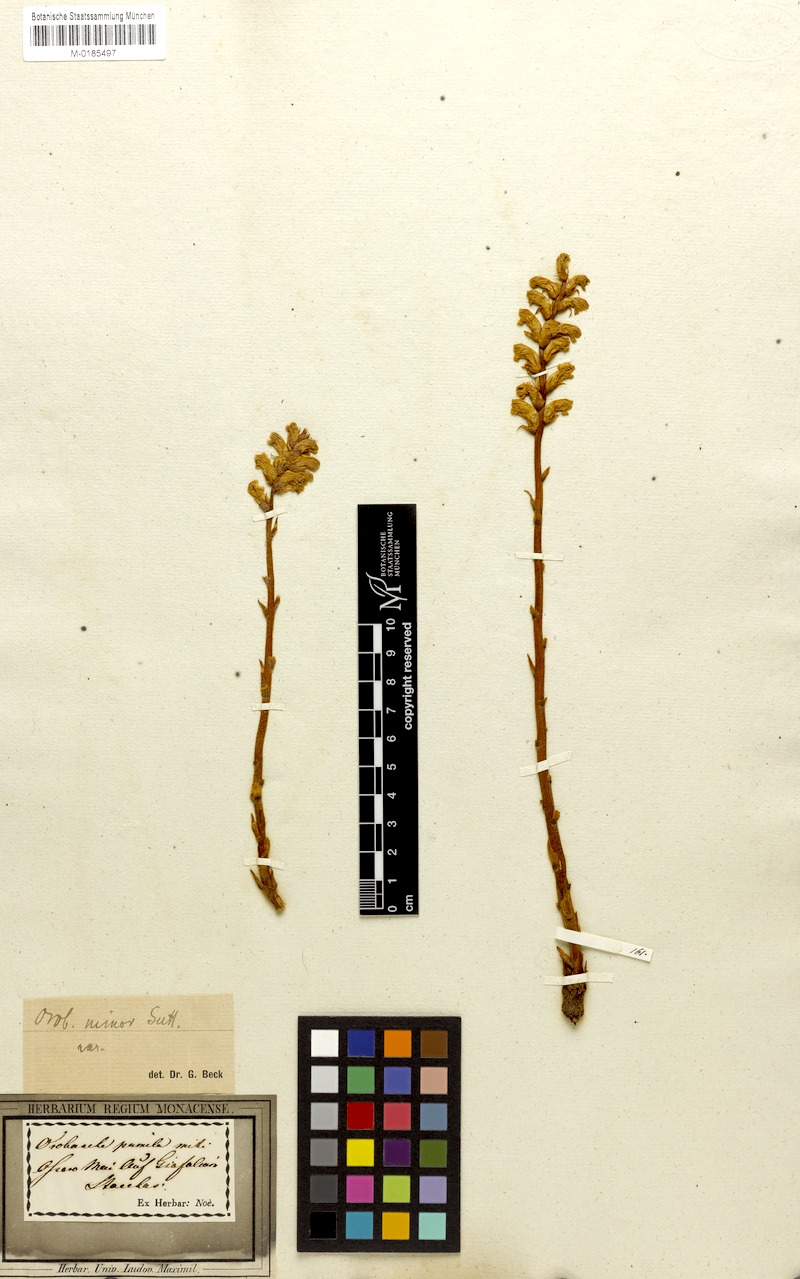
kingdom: Plantae
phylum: Tracheophyta
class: Magnoliopsida
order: Lamiales
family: Orobanchaceae
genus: Orobanche
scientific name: Orobanche minor
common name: Common broomrape
